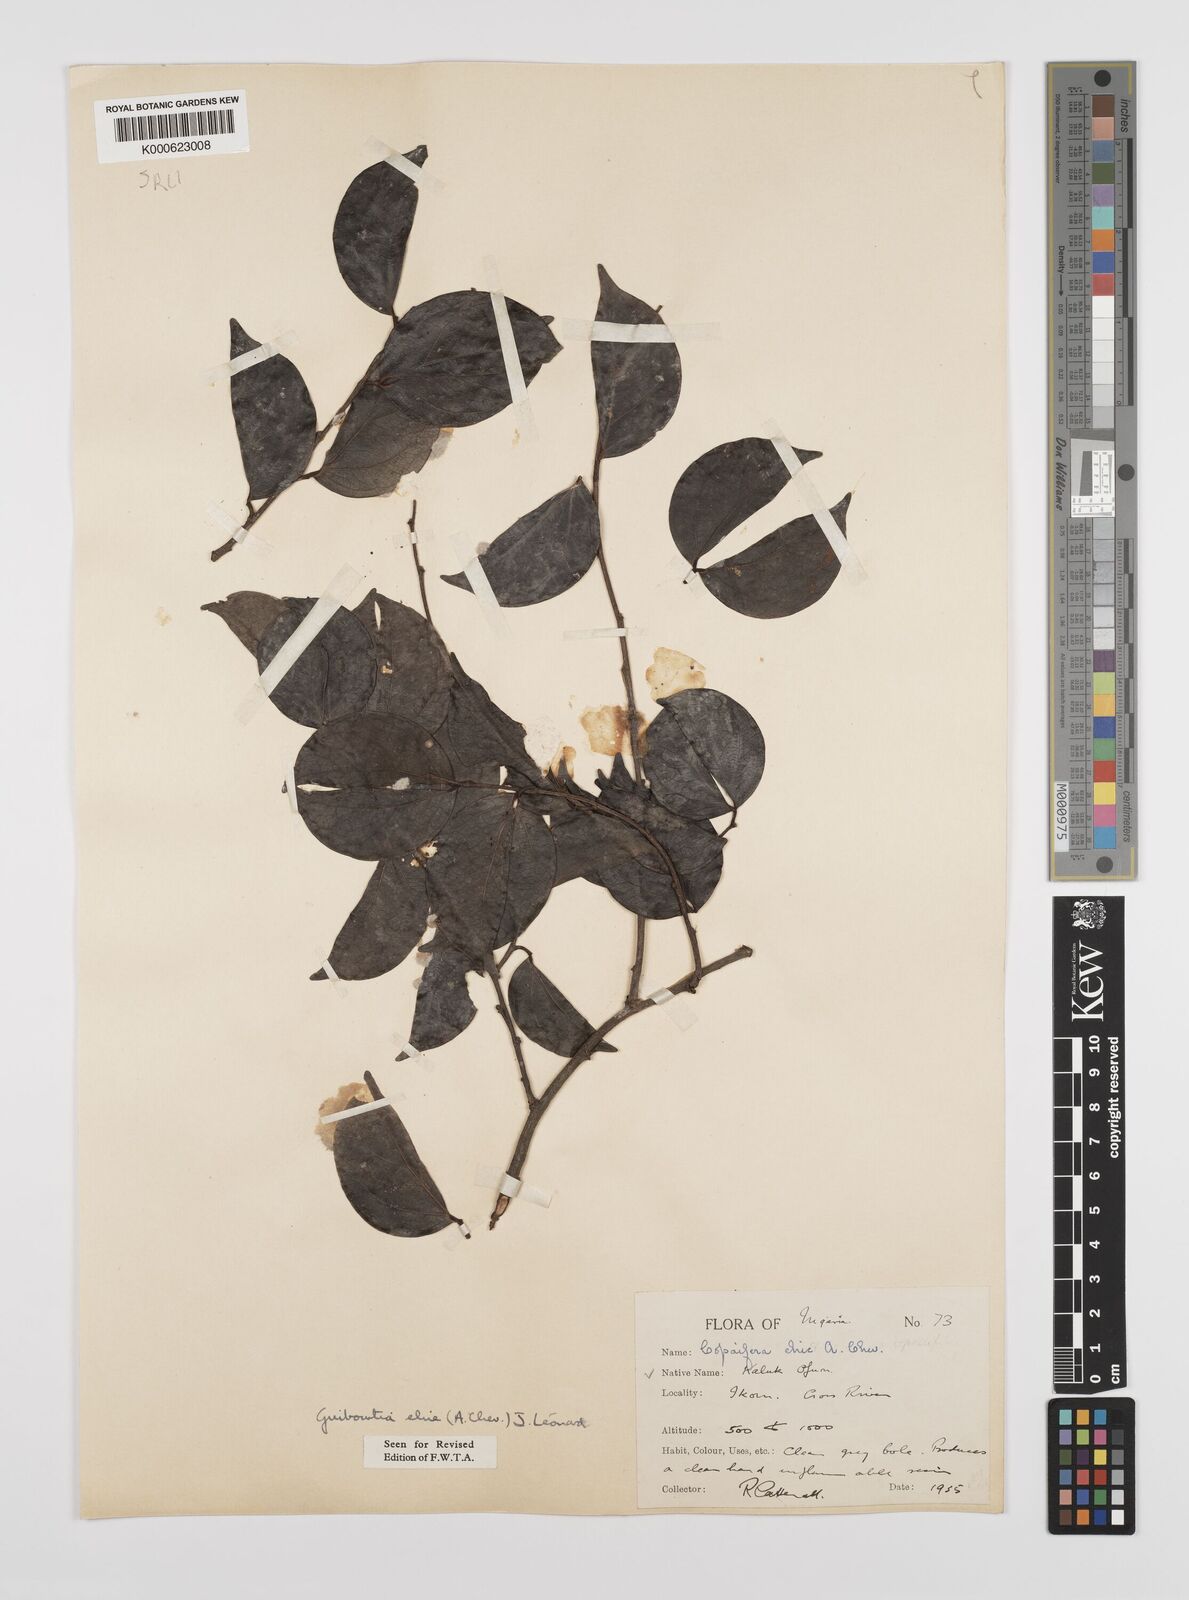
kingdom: Plantae
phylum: Tracheophyta
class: Magnoliopsida
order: Fabales
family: Fabaceae
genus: Guibourtia
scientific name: Guibourtia ehie
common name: Black hyedua
